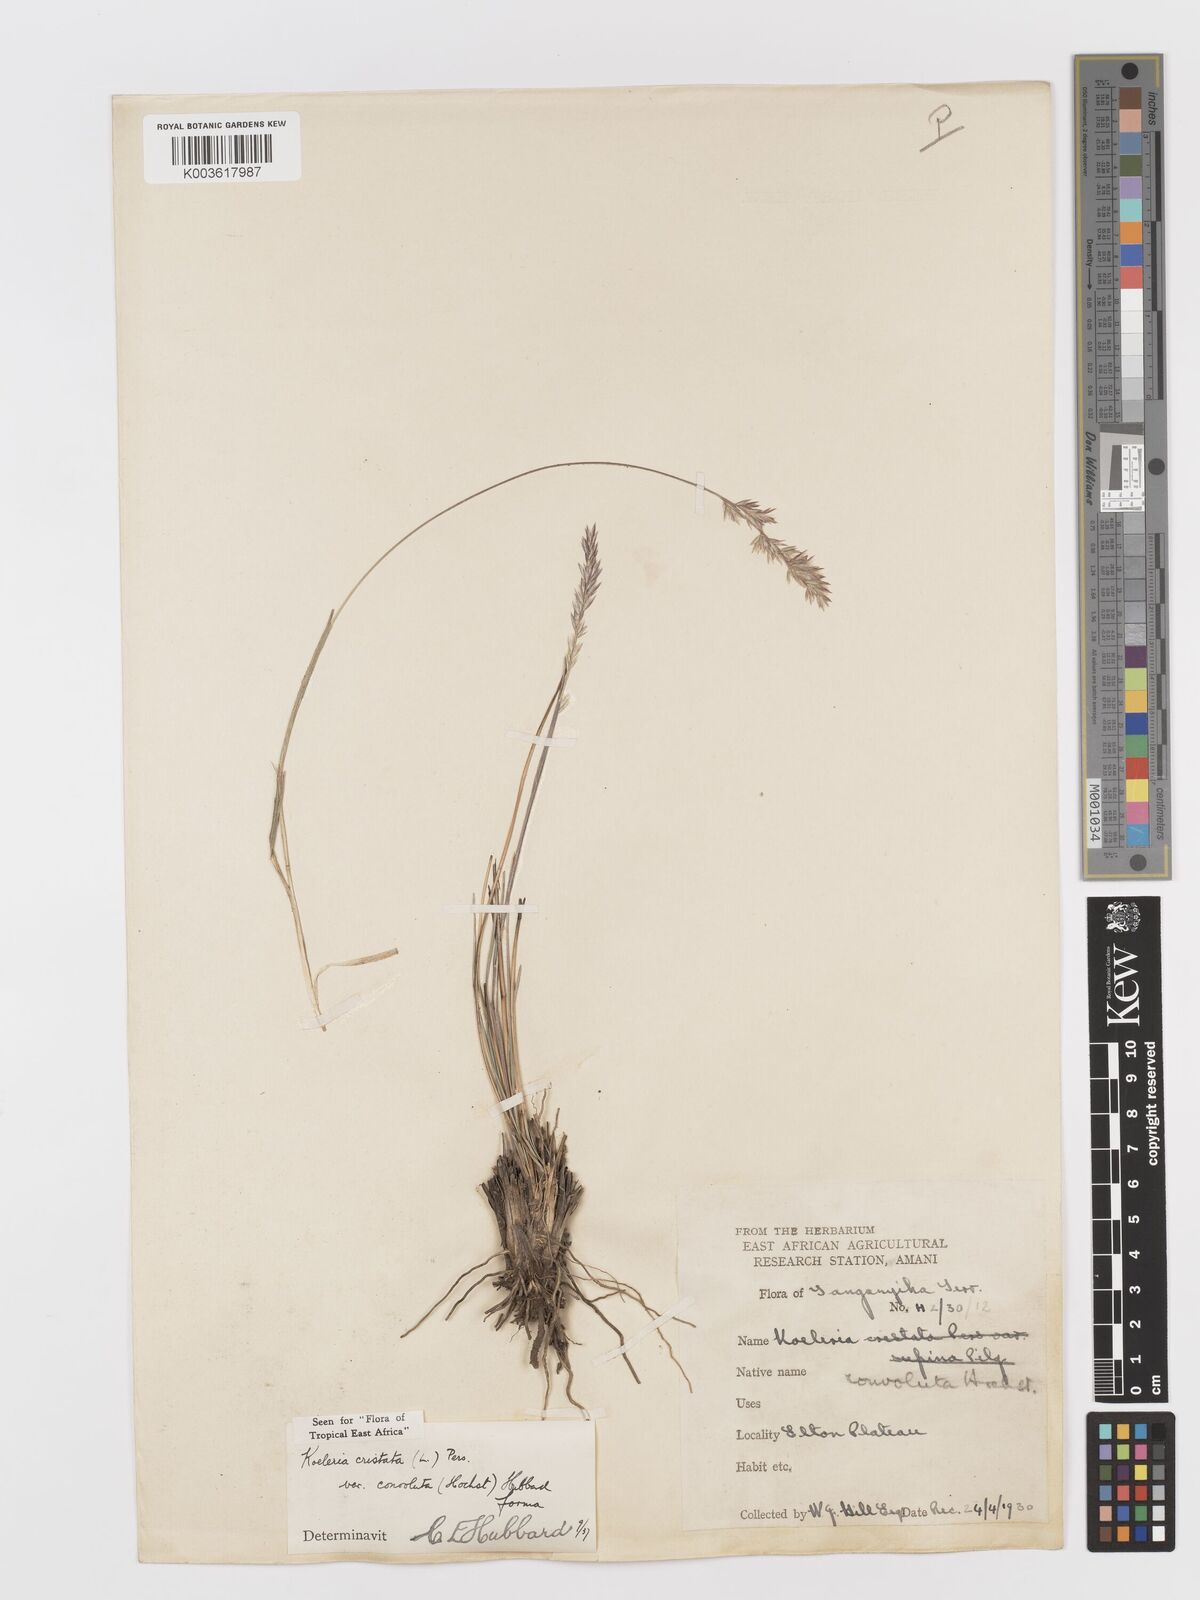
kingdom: Plantae
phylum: Tracheophyta
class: Liliopsida
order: Poales
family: Poaceae
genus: Koeleria
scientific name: Koeleria capensis
